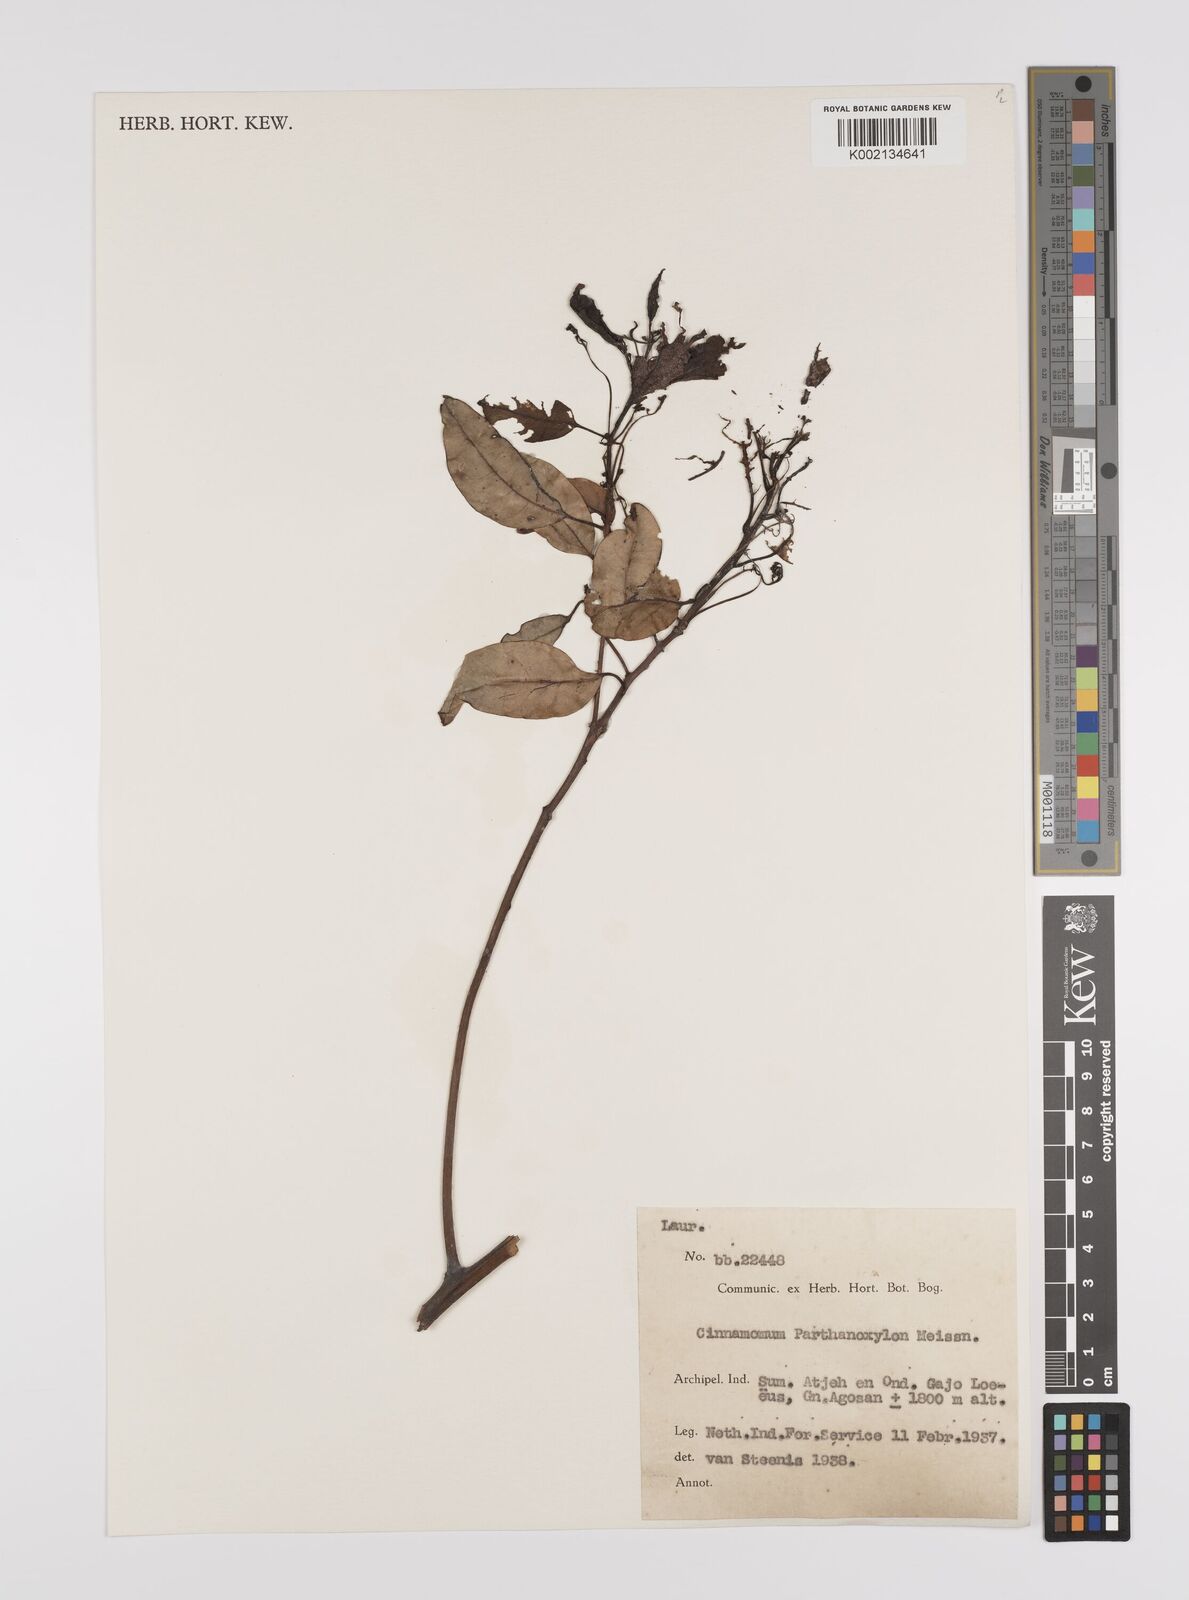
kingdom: Plantae
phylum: Tracheophyta
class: Magnoliopsida
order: Laurales
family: Lauraceae
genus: Cinnamomum
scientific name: Cinnamomum parthenoxylon
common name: Martaban camphor wood
